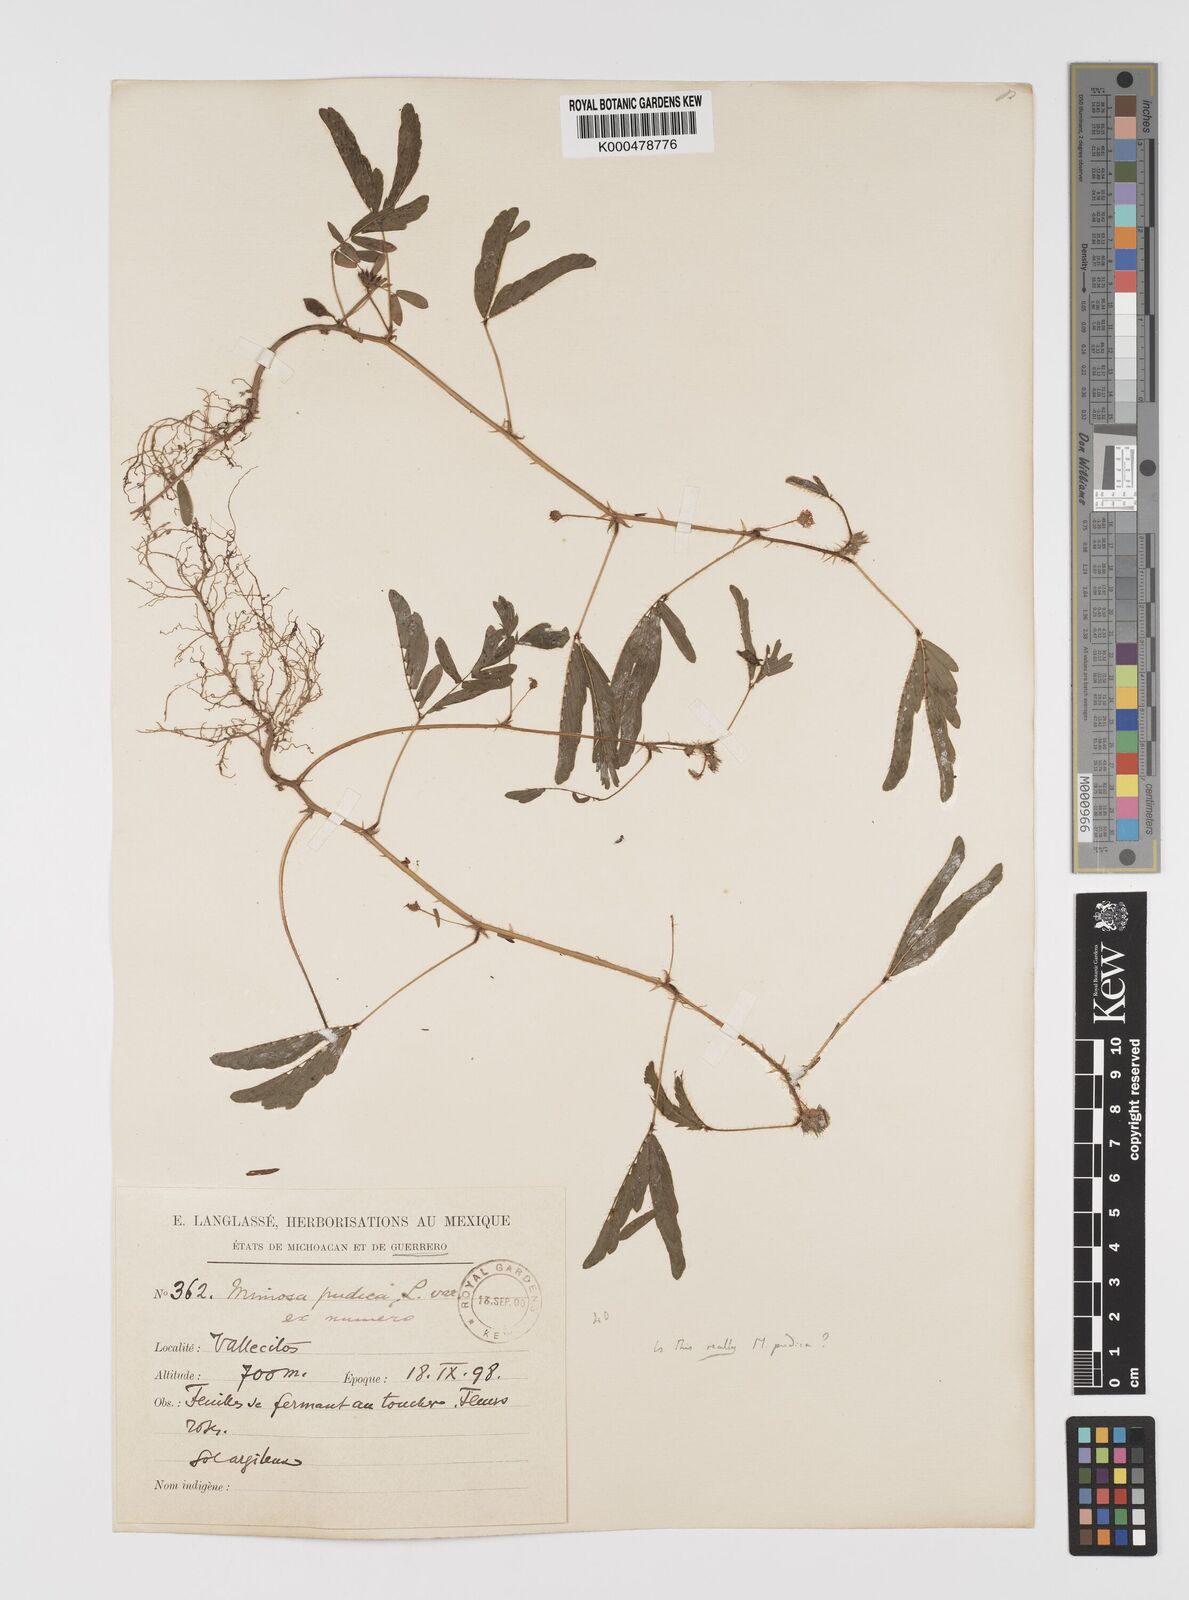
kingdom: Plantae
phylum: Tracheophyta
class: Magnoliopsida
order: Fabales
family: Fabaceae
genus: Mimosa
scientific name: Mimosa pudica
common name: Sensitive plant
